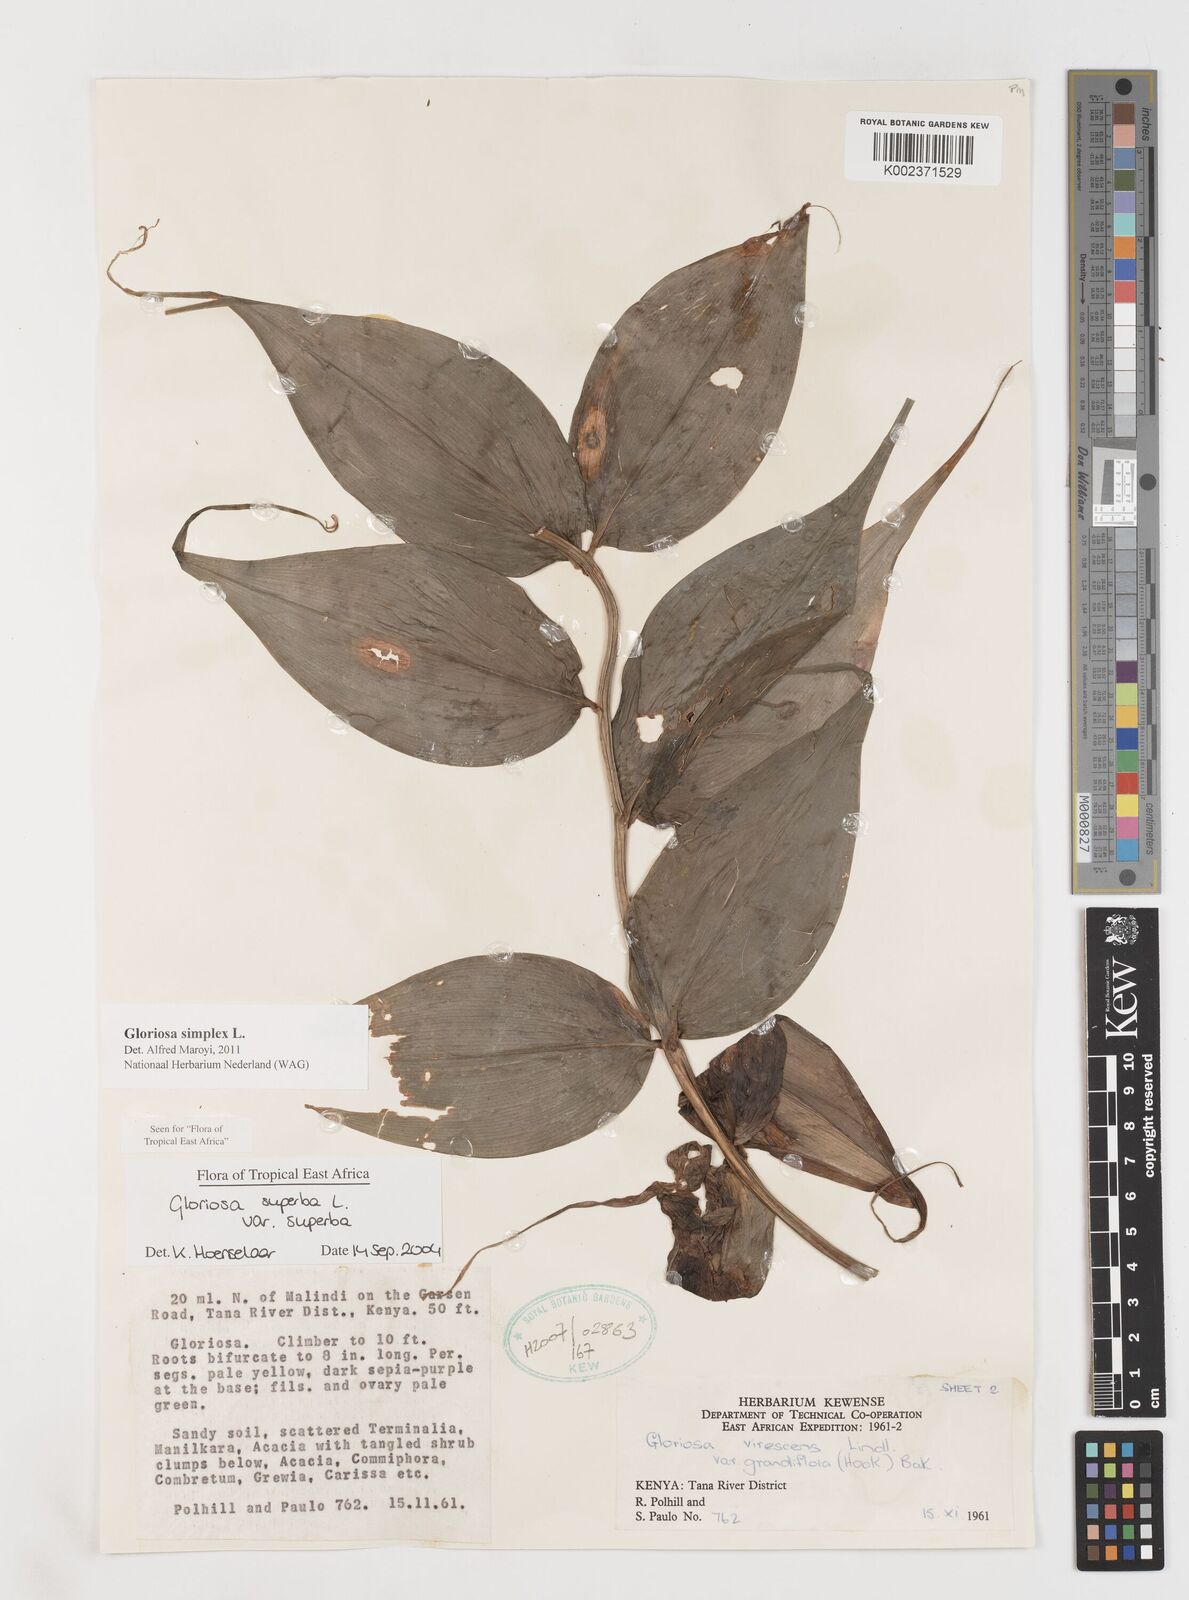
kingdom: Plantae
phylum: Tracheophyta
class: Liliopsida
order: Liliales
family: Colchicaceae
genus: Gloriosa
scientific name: Gloriosa simplex
